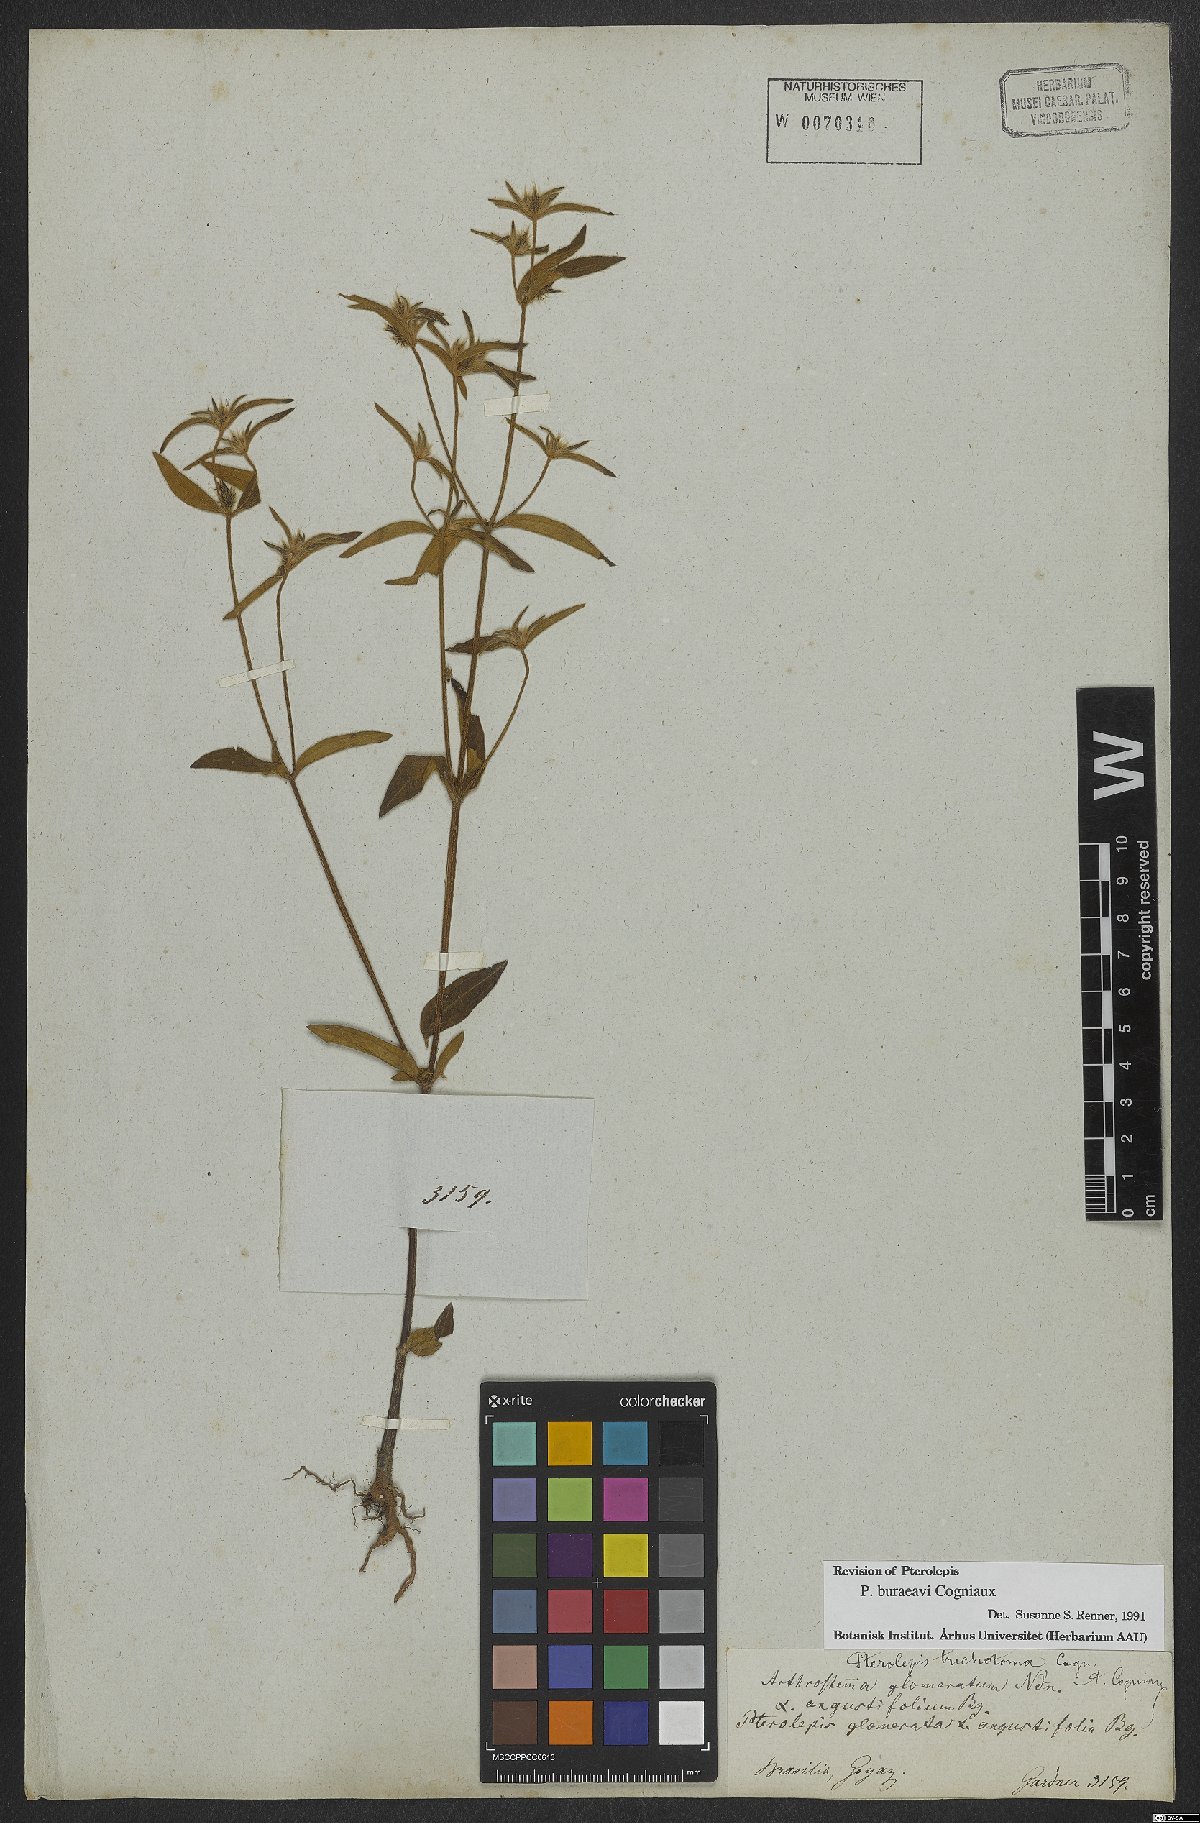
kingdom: Plantae
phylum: Tracheophyta
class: Magnoliopsida
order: Myrtales
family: Melastomataceae
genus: Pterolepis
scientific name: Pterolepis buraeavi
